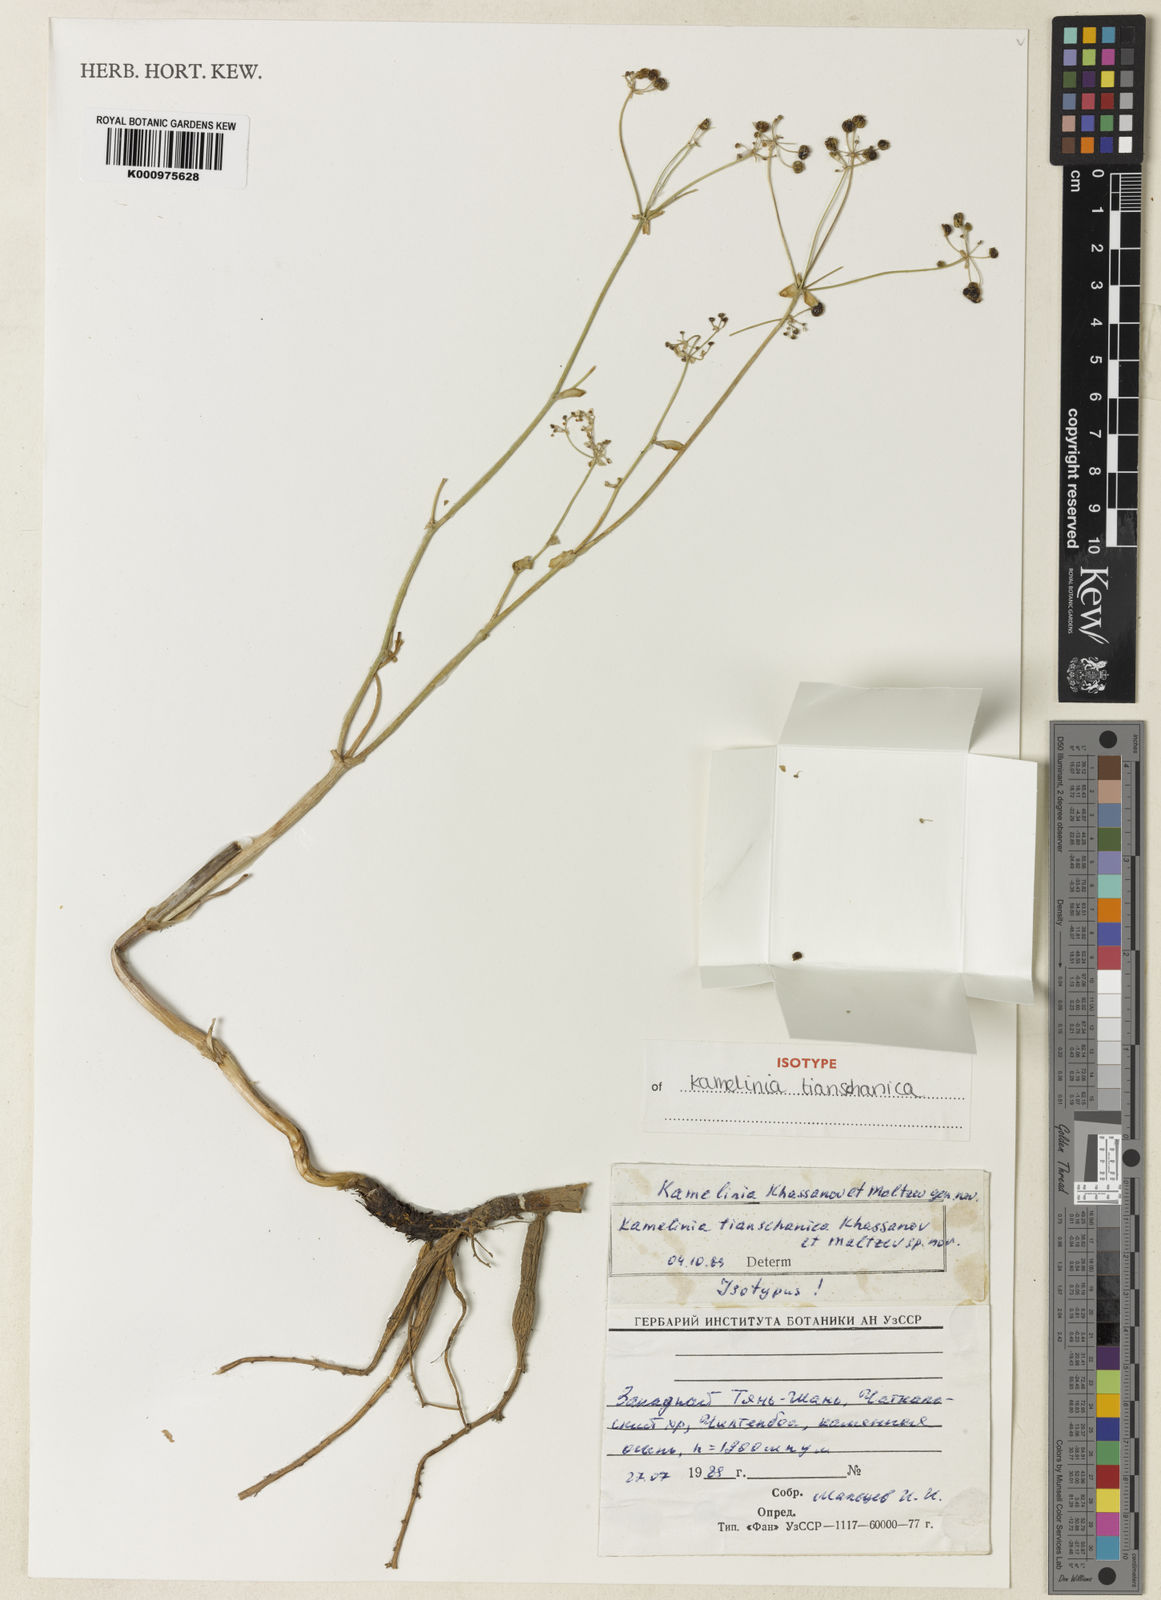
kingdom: Plantae
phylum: Tracheophyta
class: Magnoliopsida
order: Apiales
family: Apiaceae
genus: Korshinskia
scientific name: Korshinskia tianschanica
